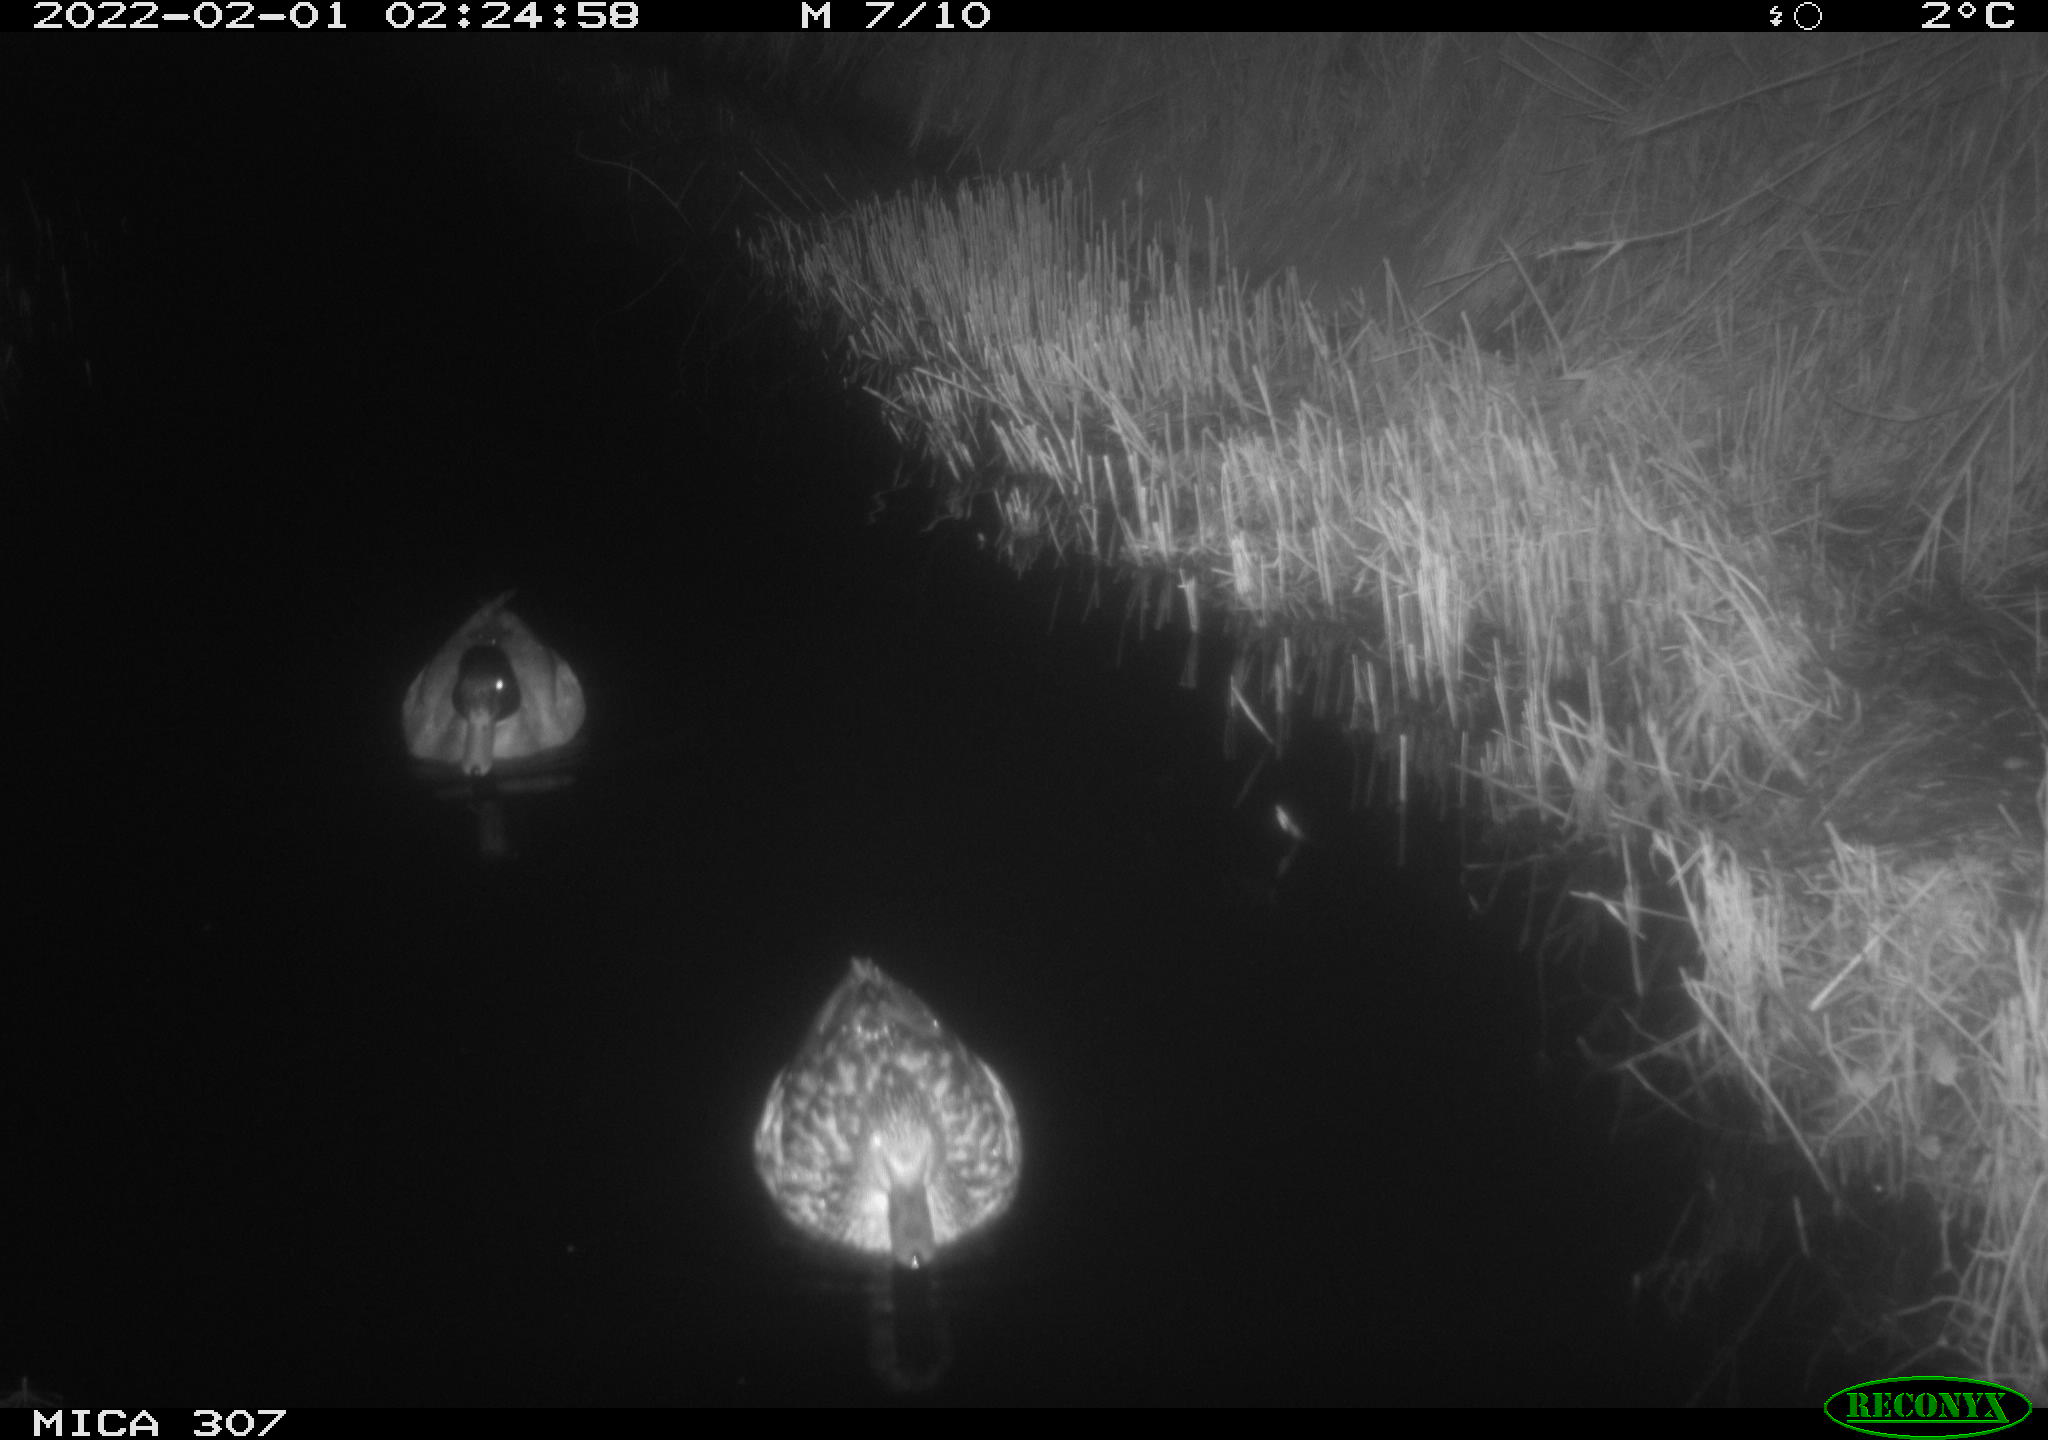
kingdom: Animalia
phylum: Chordata
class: Aves
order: Anseriformes
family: Anatidae
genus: Anas
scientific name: Anas
